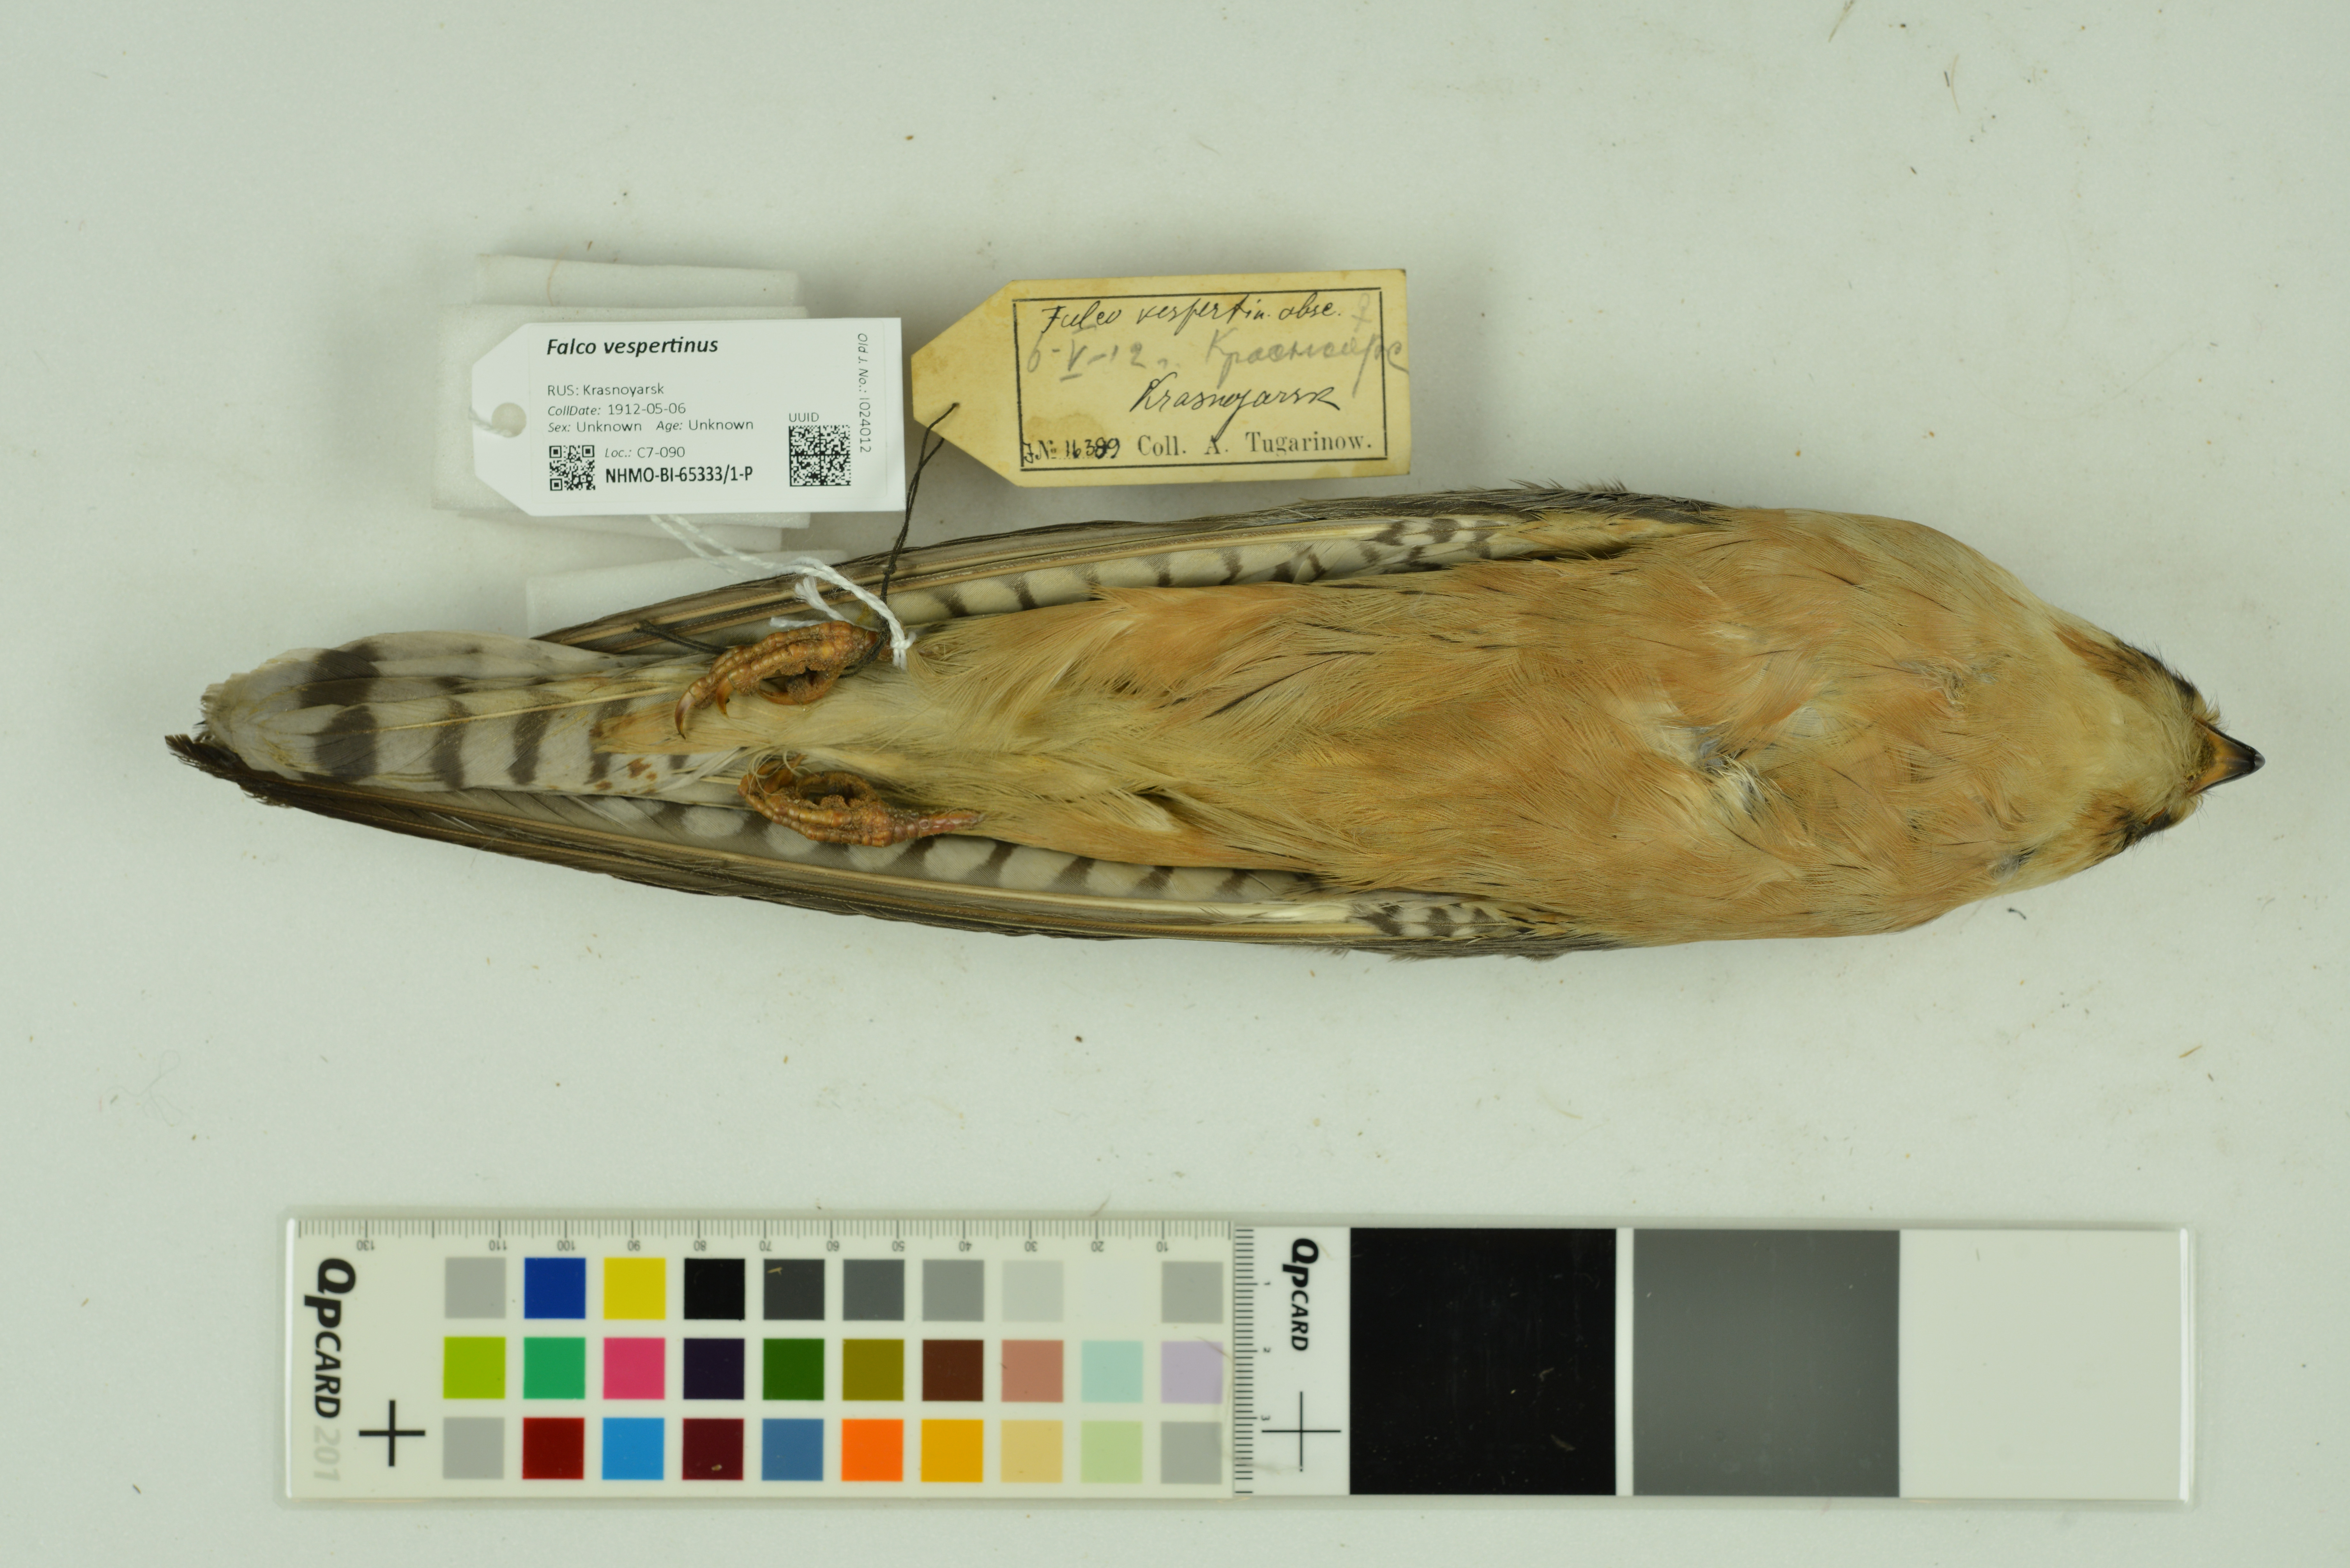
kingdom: Animalia
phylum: Chordata
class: Aves
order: Falconiformes
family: Falconidae
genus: Falco
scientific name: Falco vespertinus
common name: Red-footed falcon
